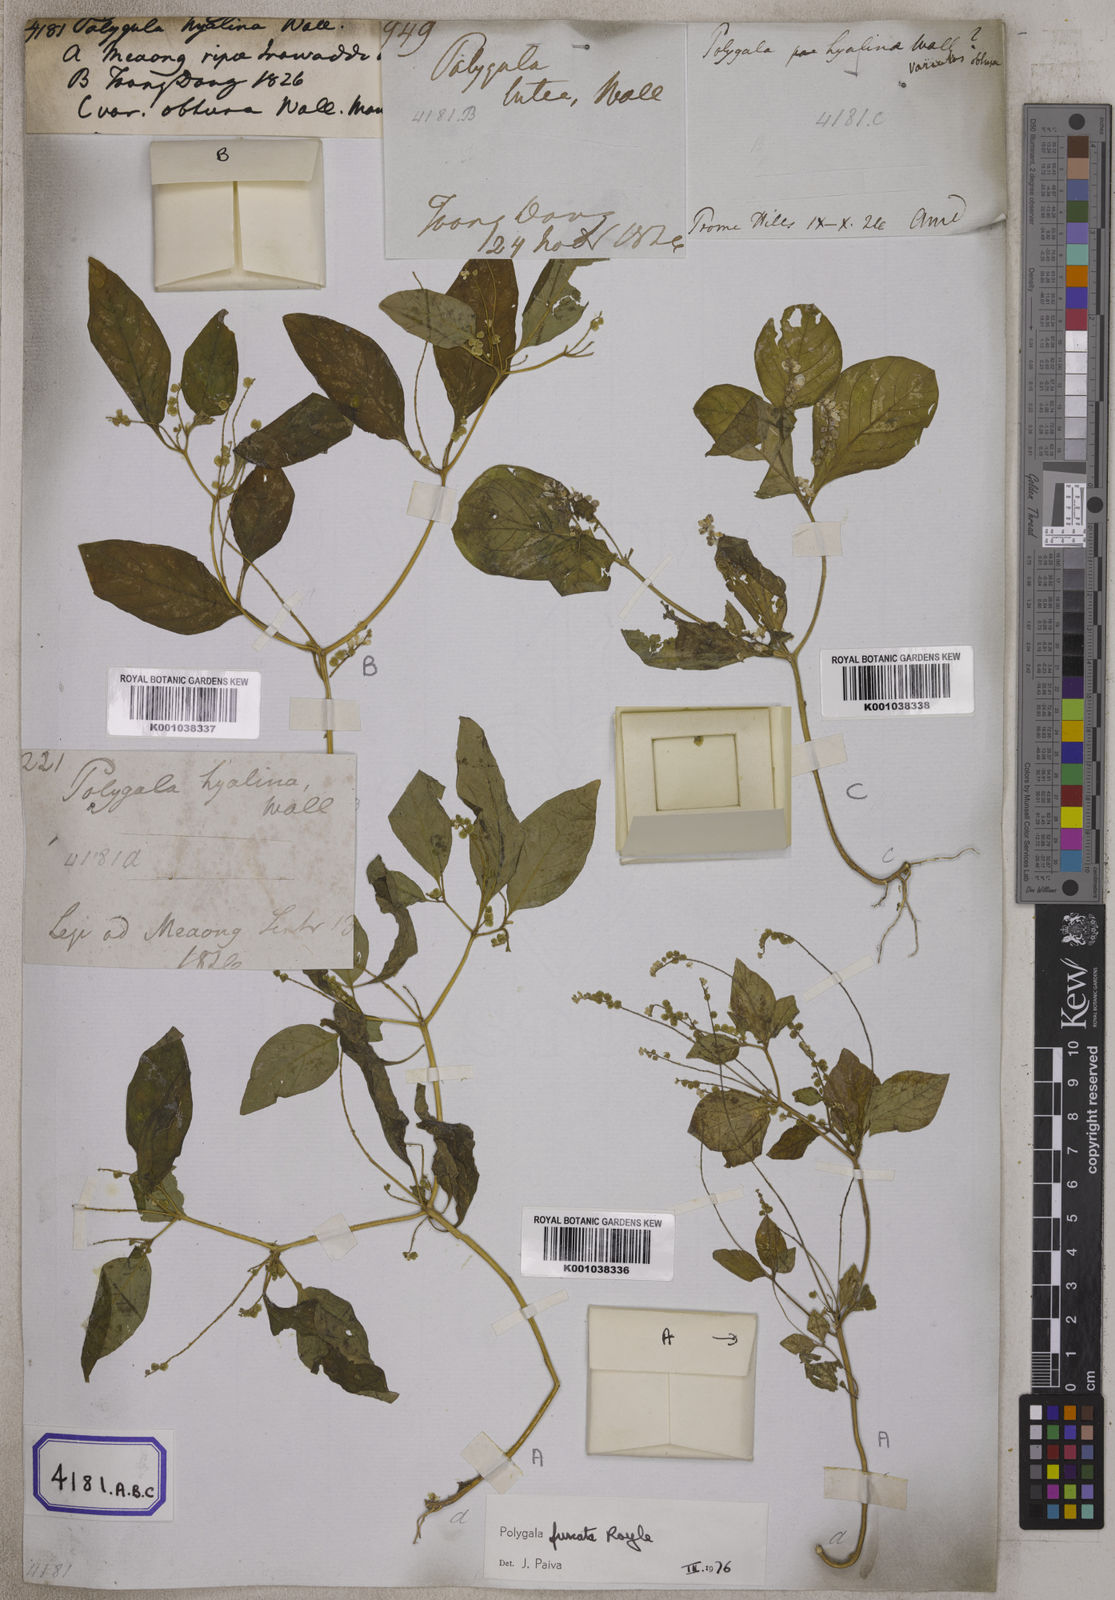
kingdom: Plantae
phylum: Tracheophyta
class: Magnoliopsida
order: Fabales
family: Polygalaceae
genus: Polygala
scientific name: Polygala furcata
